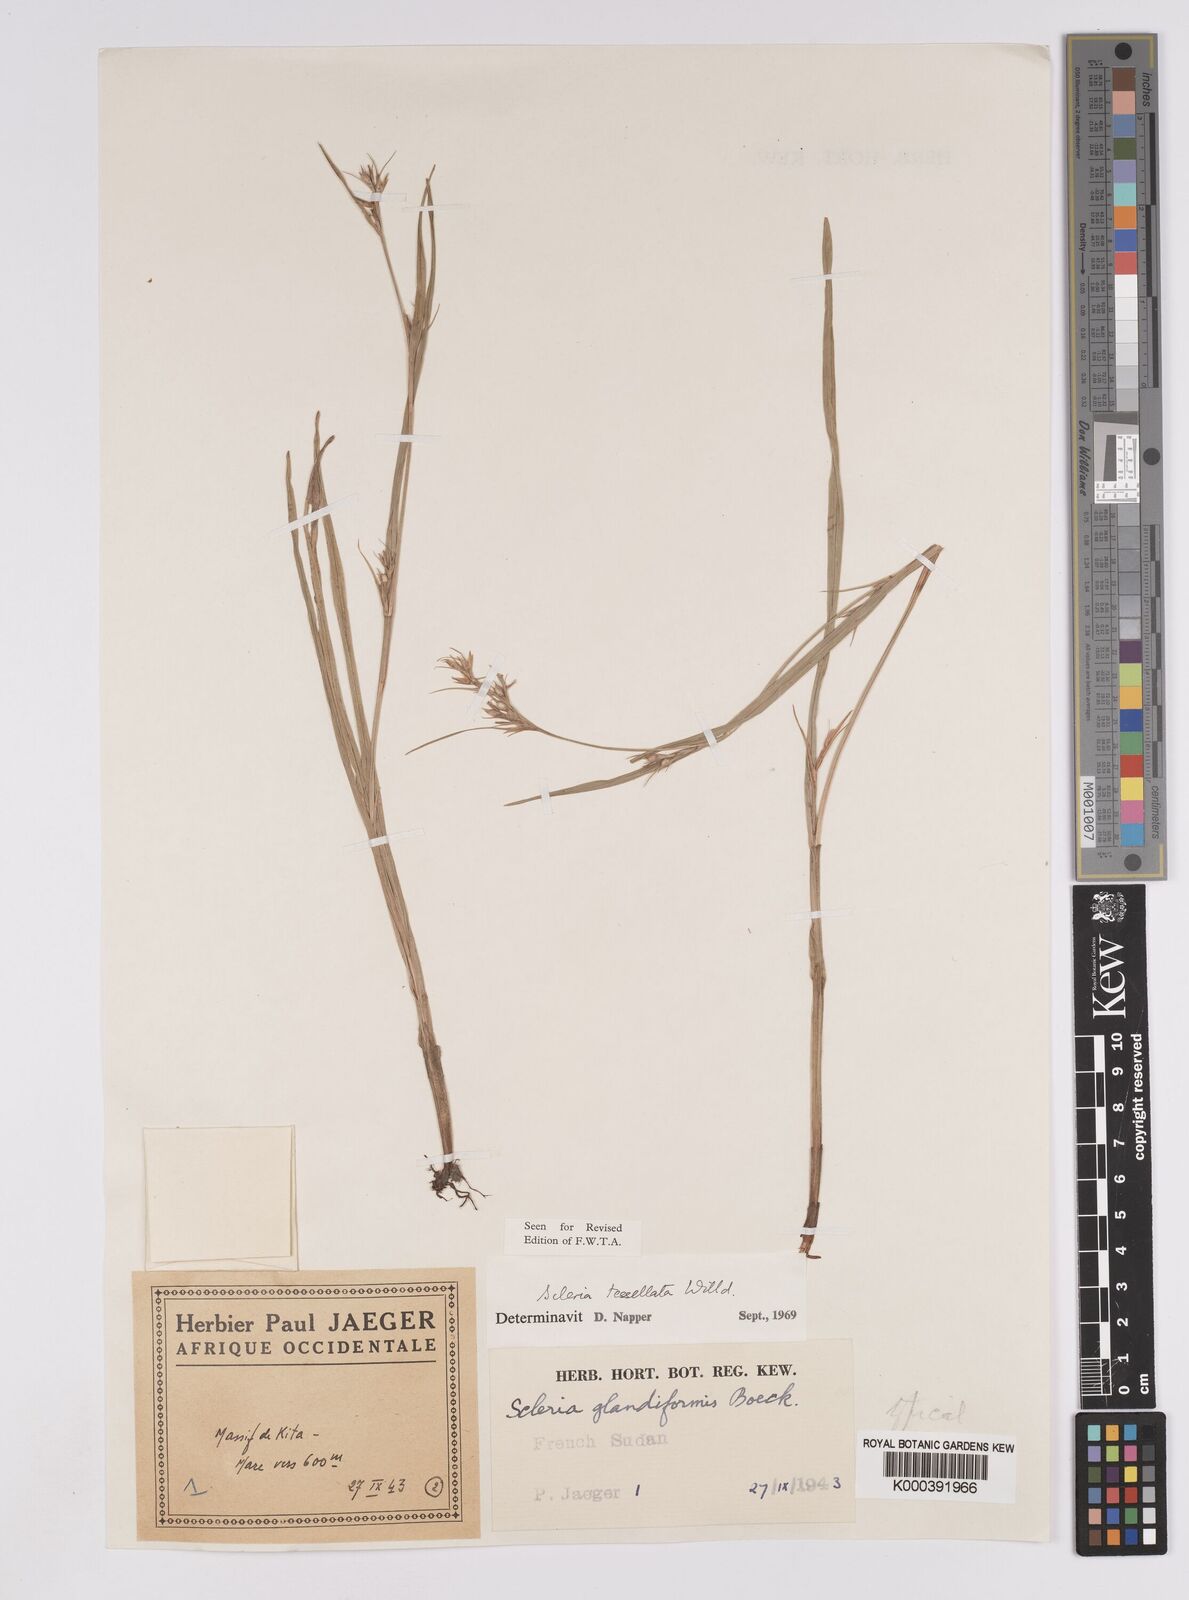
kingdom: Plantae
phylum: Tracheophyta
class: Liliopsida
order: Poales
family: Cyperaceae
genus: Scleria
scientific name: Scleria tessellata
